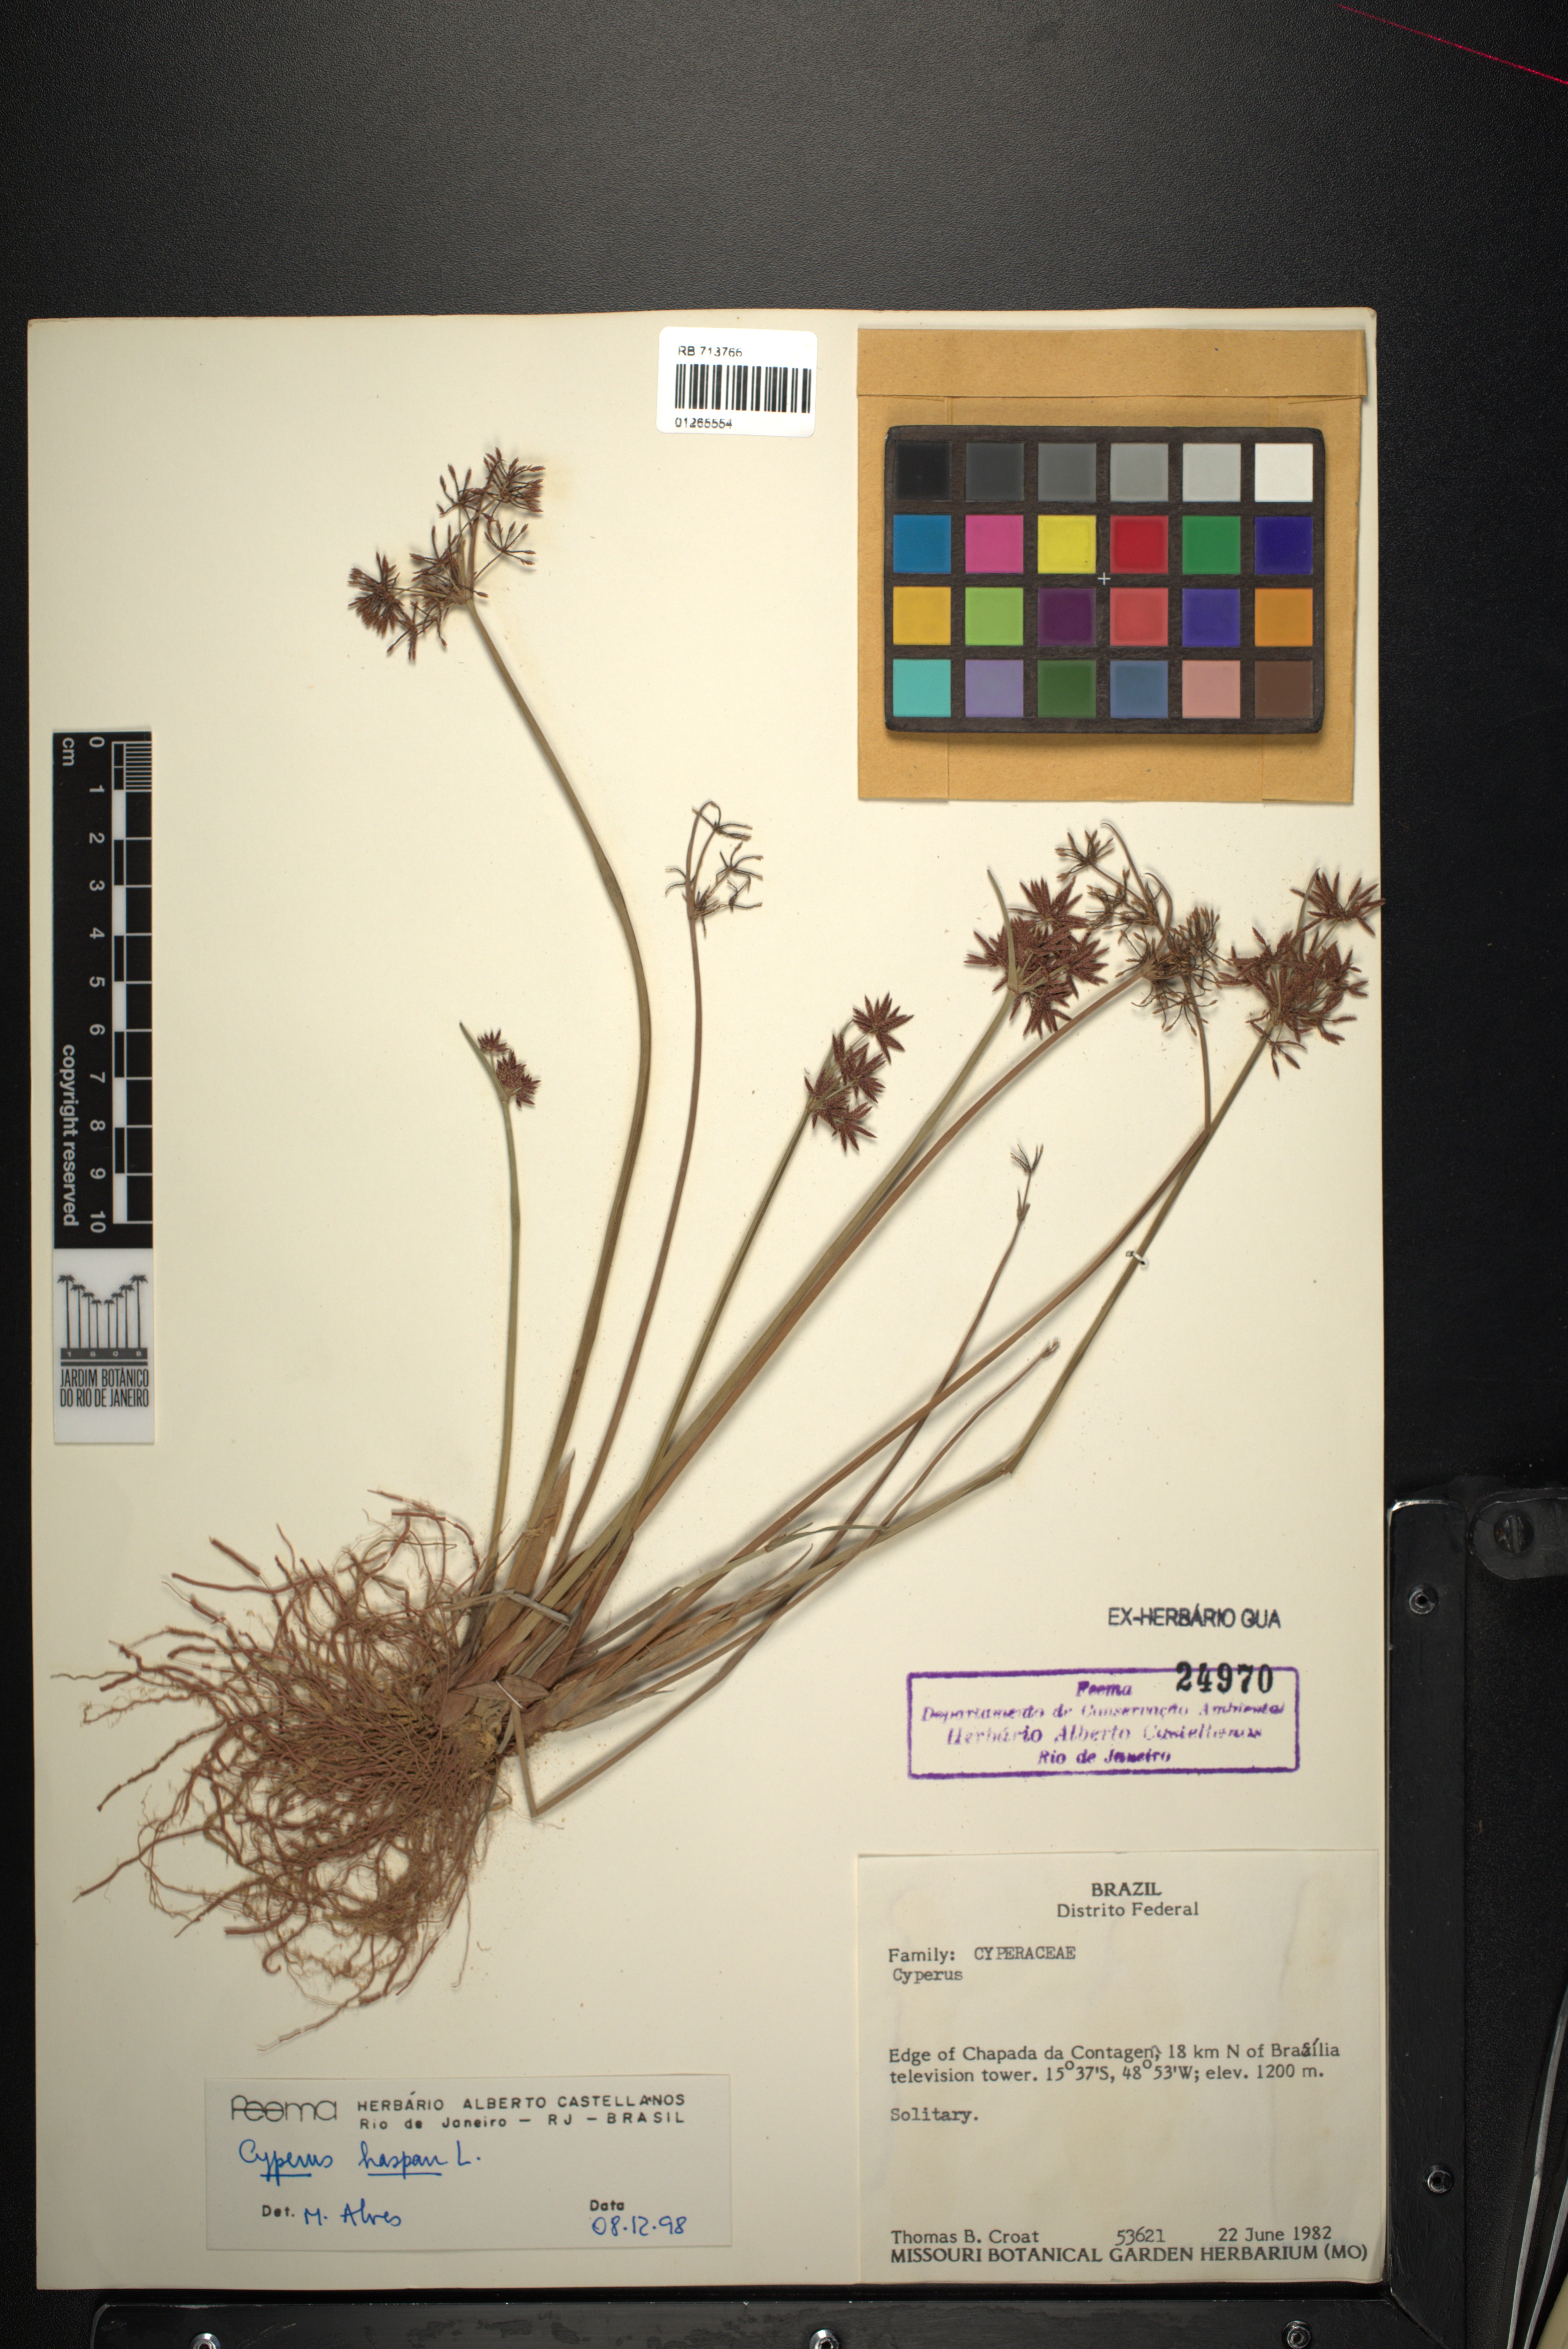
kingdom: Plantae
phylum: Tracheophyta
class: Liliopsida
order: Poales
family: Cyperaceae
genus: Cyperus
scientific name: Cyperus haspan
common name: Haspan flatsedge
